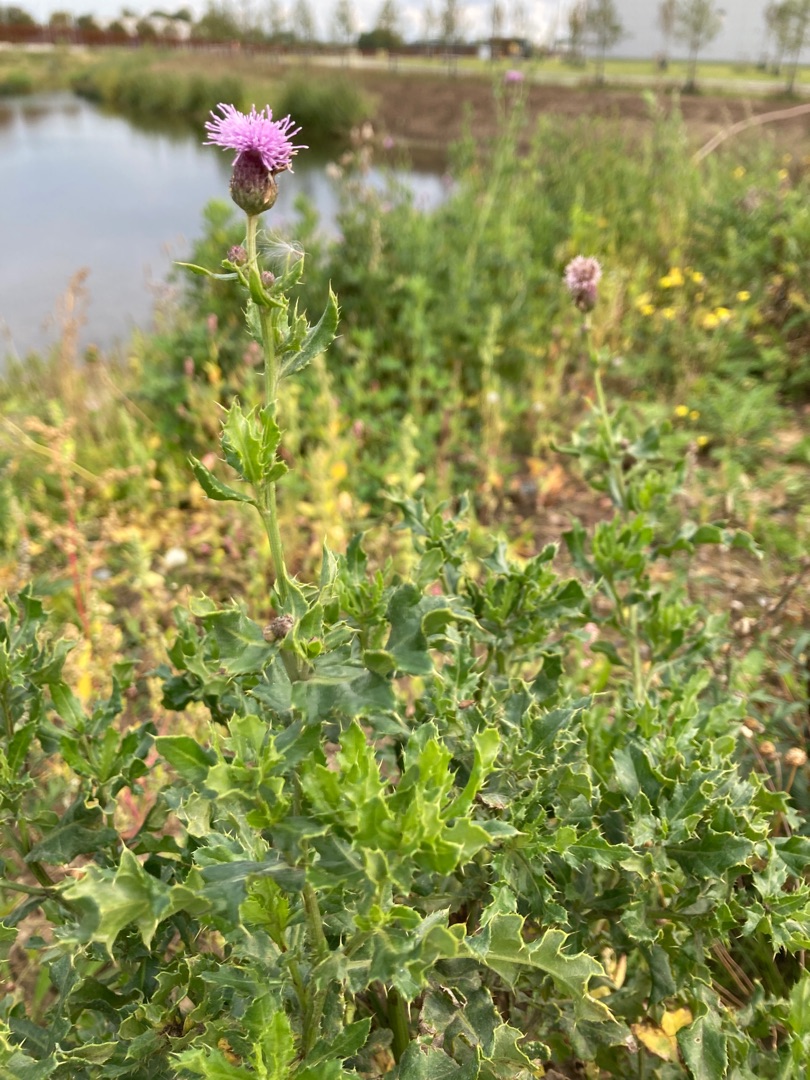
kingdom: Plantae
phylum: Tracheophyta
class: Magnoliopsida
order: Asterales
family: Asteraceae
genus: Cirsium
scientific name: Cirsium arvense
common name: Ager-tidsel
